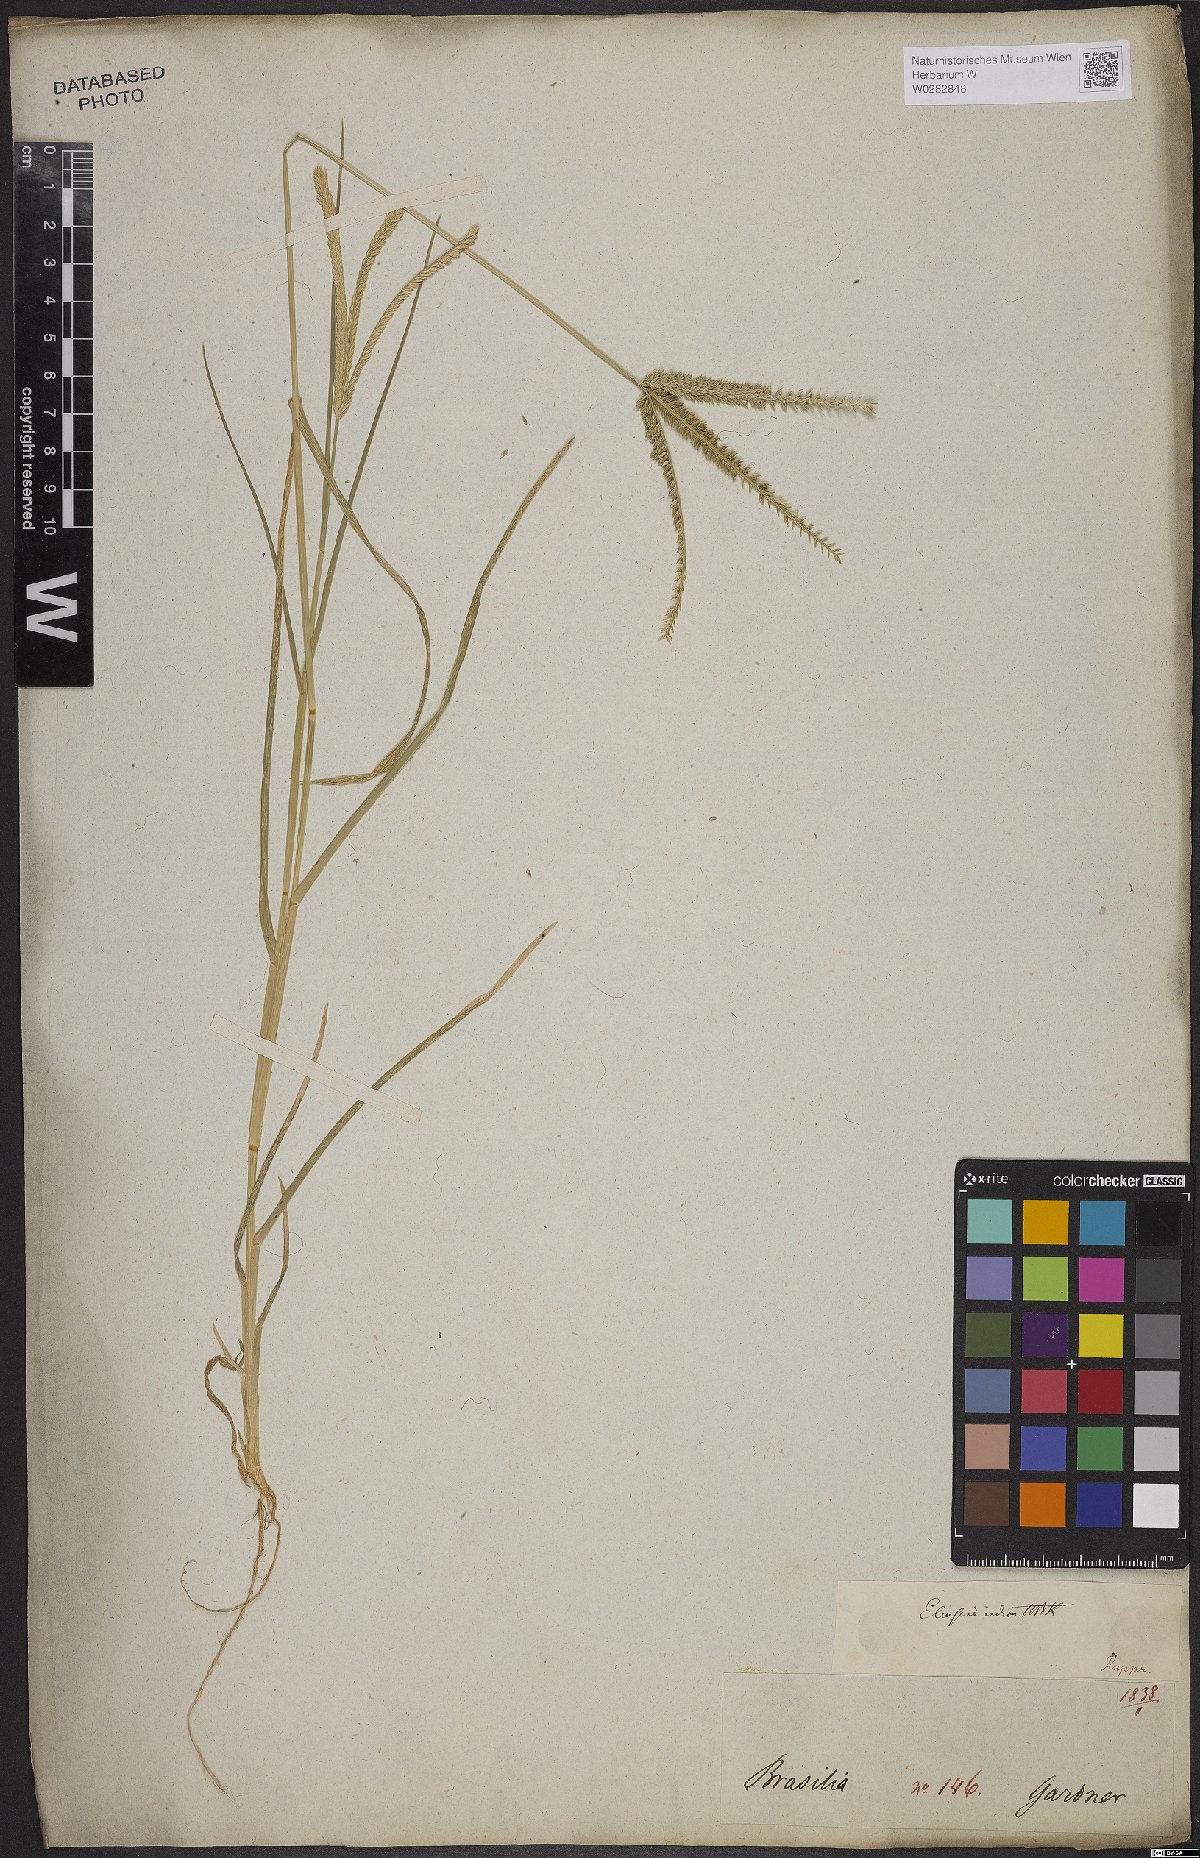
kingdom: Plantae
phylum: Tracheophyta
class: Liliopsida
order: Poales
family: Poaceae
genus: Eleusine
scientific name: Eleusine indica
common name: Yard-grass
